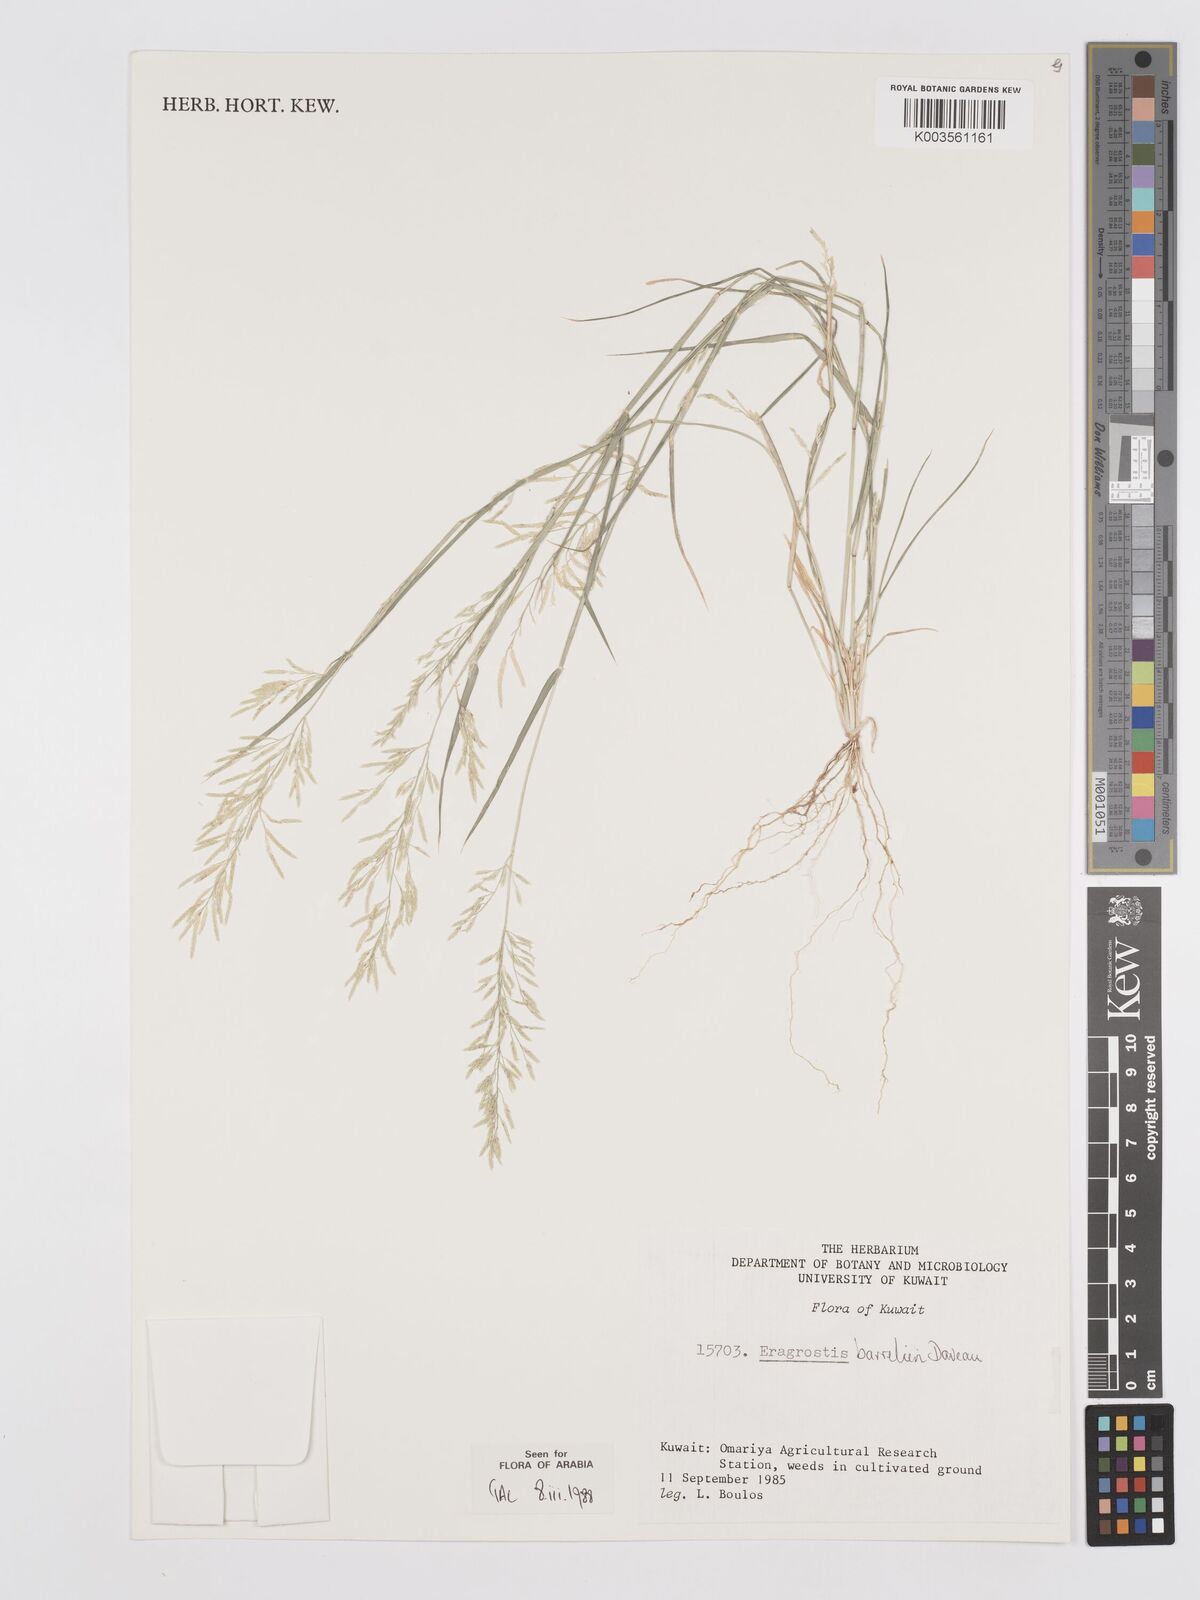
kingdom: Plantae
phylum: Tracheophyta
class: Liliopsida
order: Poales
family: Poaceae
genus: Eragrostis
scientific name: Eragrostis barrelieri
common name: Mediterranean lovegrass
